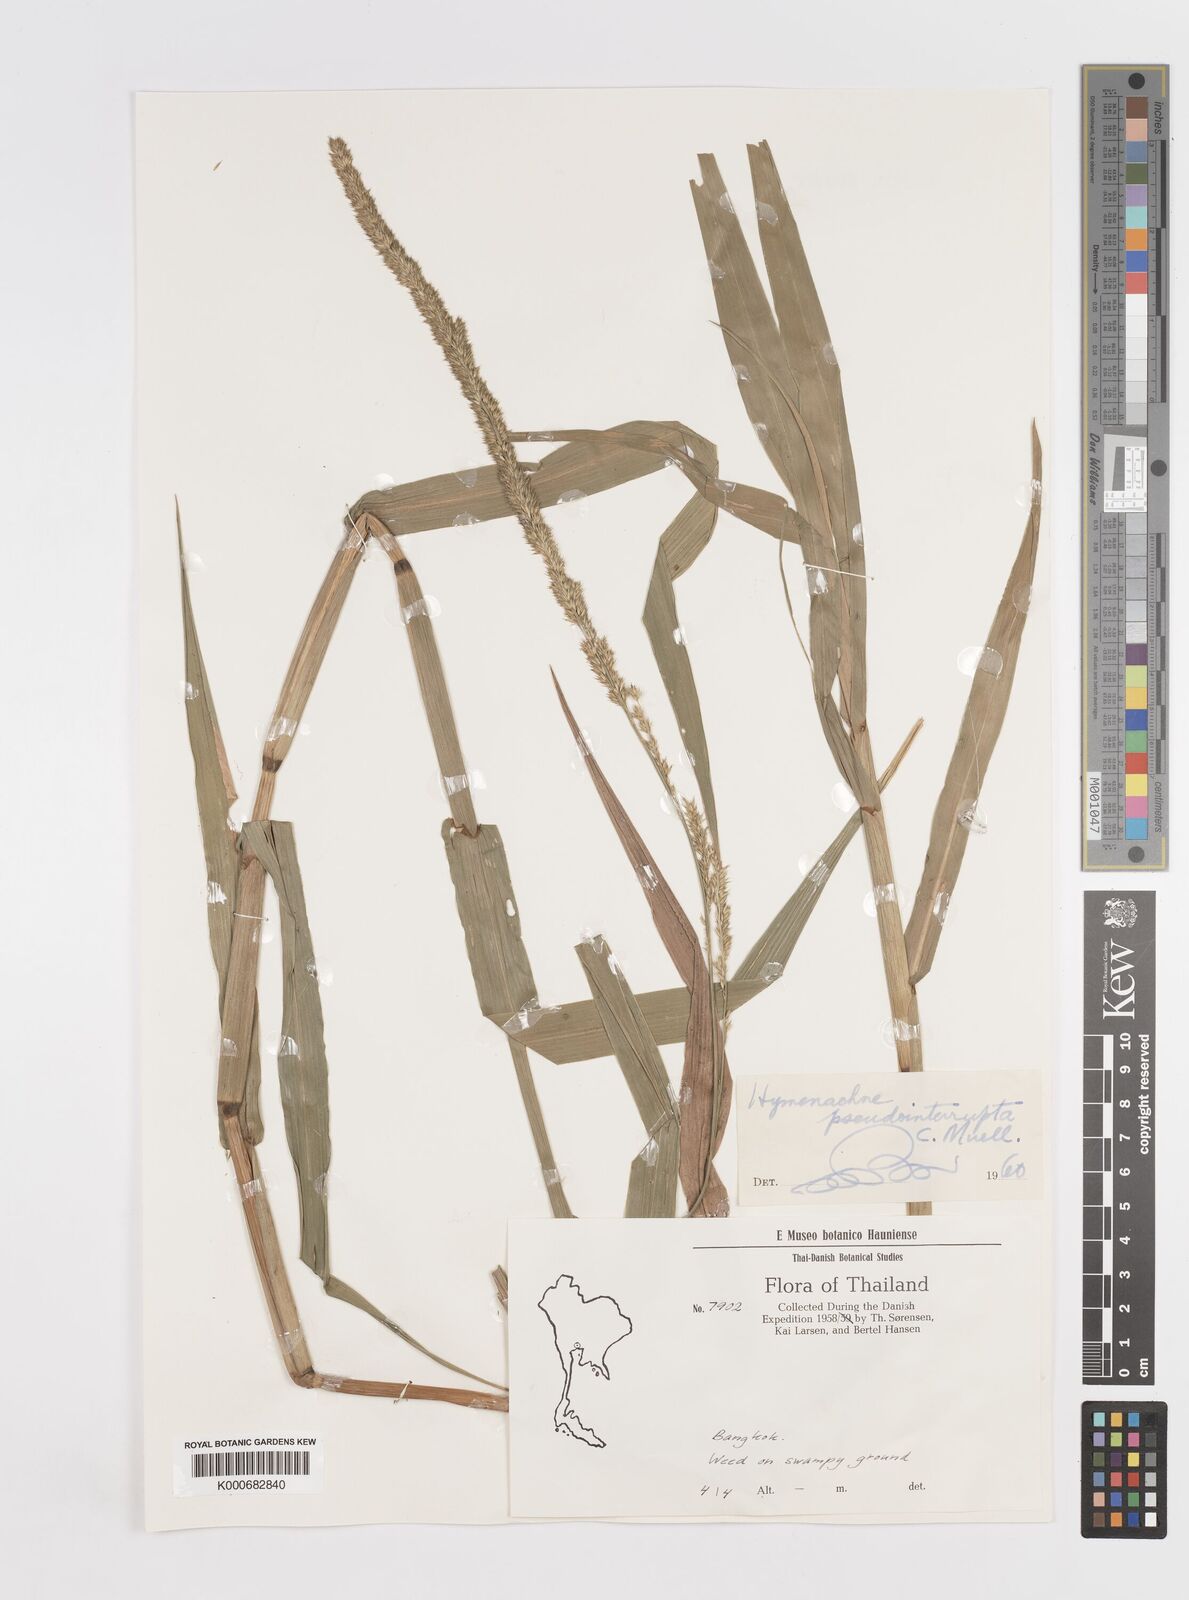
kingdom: Plantae
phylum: Tracheophyta
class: Liliopsida
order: Poales
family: Poaceae
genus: Hymenachne
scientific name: Hymenachne amplexicaulis
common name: Olive hymenachne
